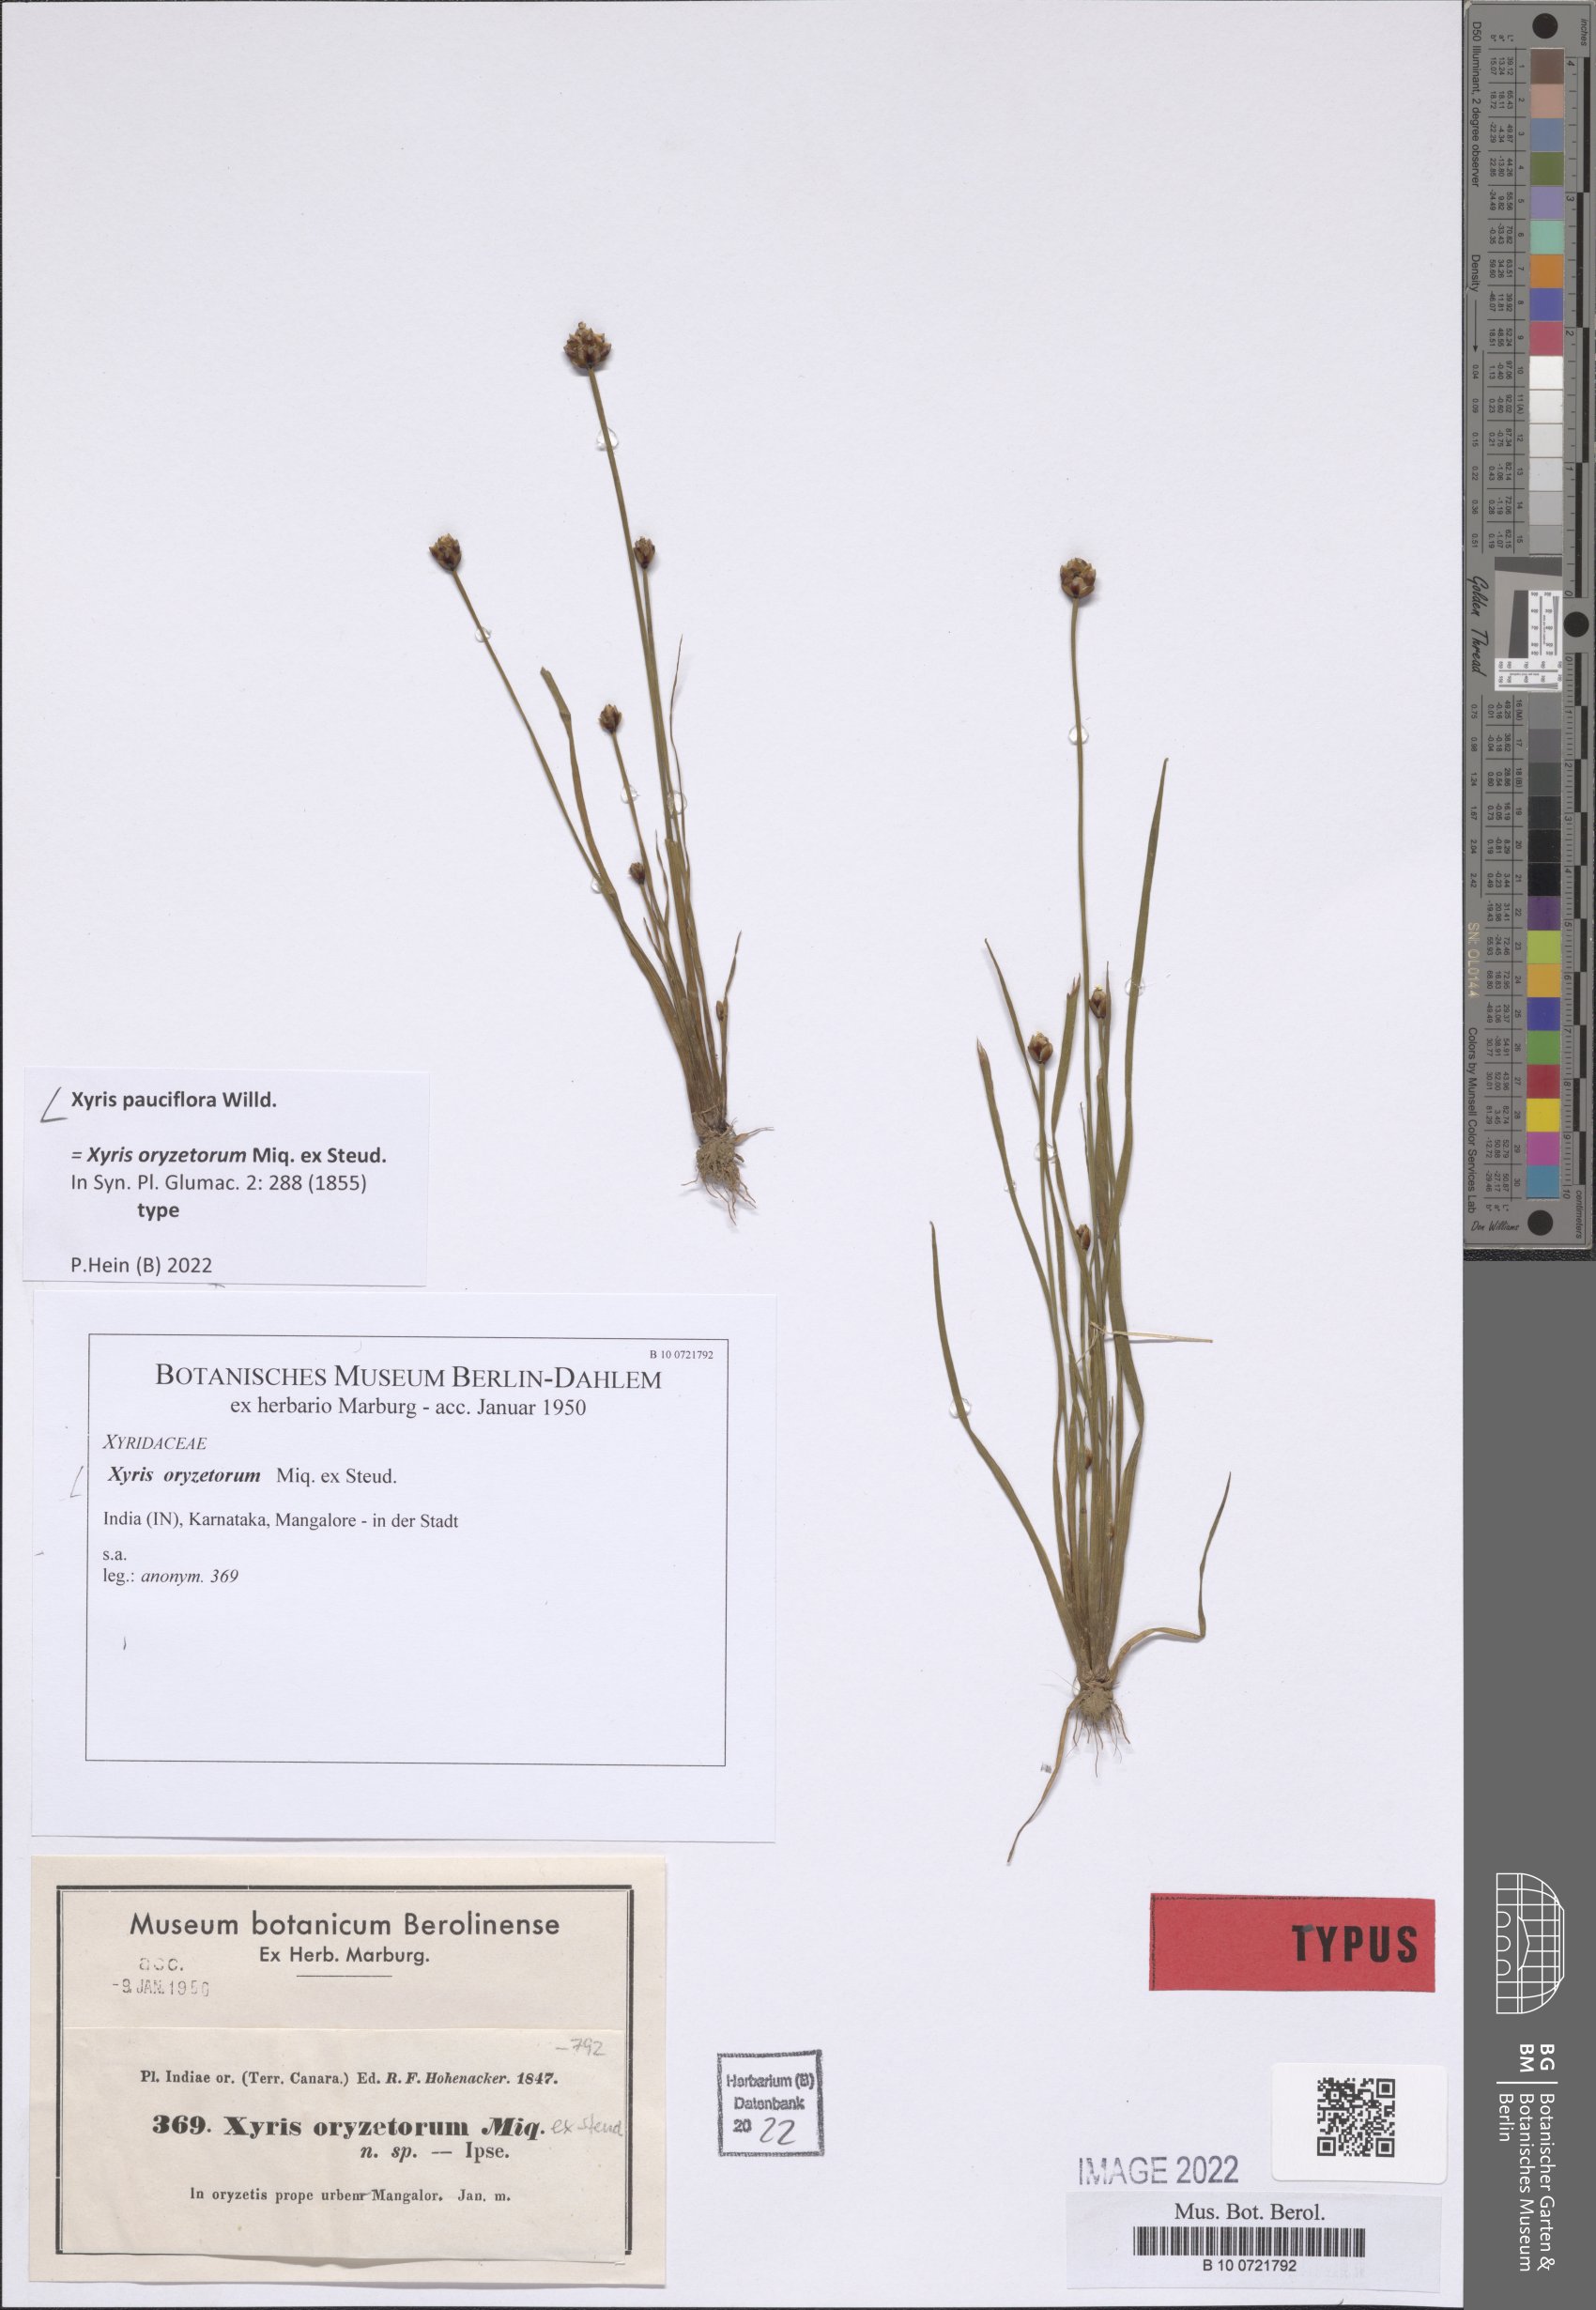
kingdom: Plantae
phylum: Tracheophyta
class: Liliopsida
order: Poales
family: Xyridaceae
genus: Xyris
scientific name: Xyris pauciflora
